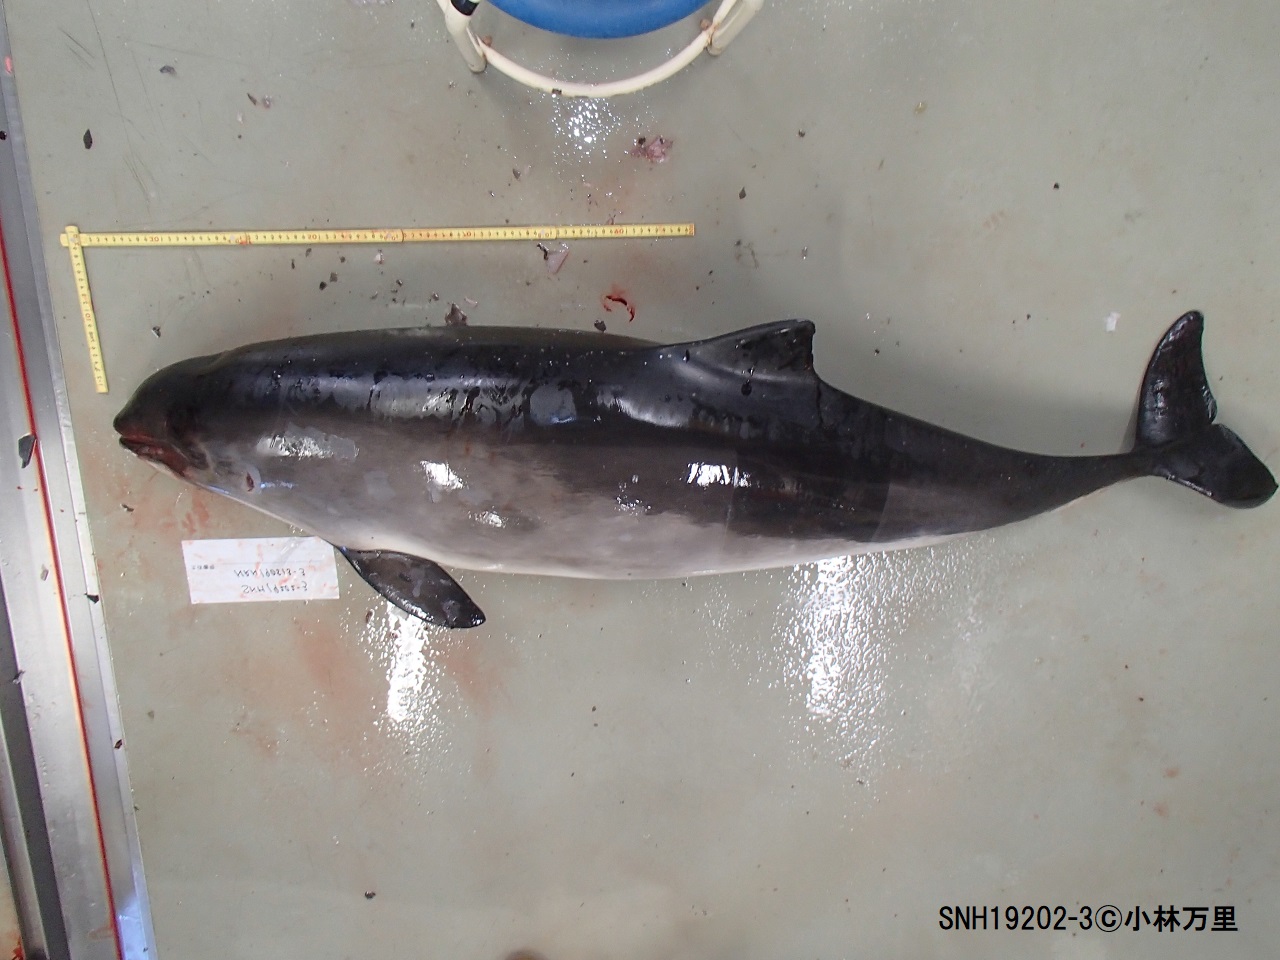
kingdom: Animalia
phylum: Chordata
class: Mammalia
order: Cetacea
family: Phocoenidae
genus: Phocoena
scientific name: Phocoena phocoena
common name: Harbour porpoise
